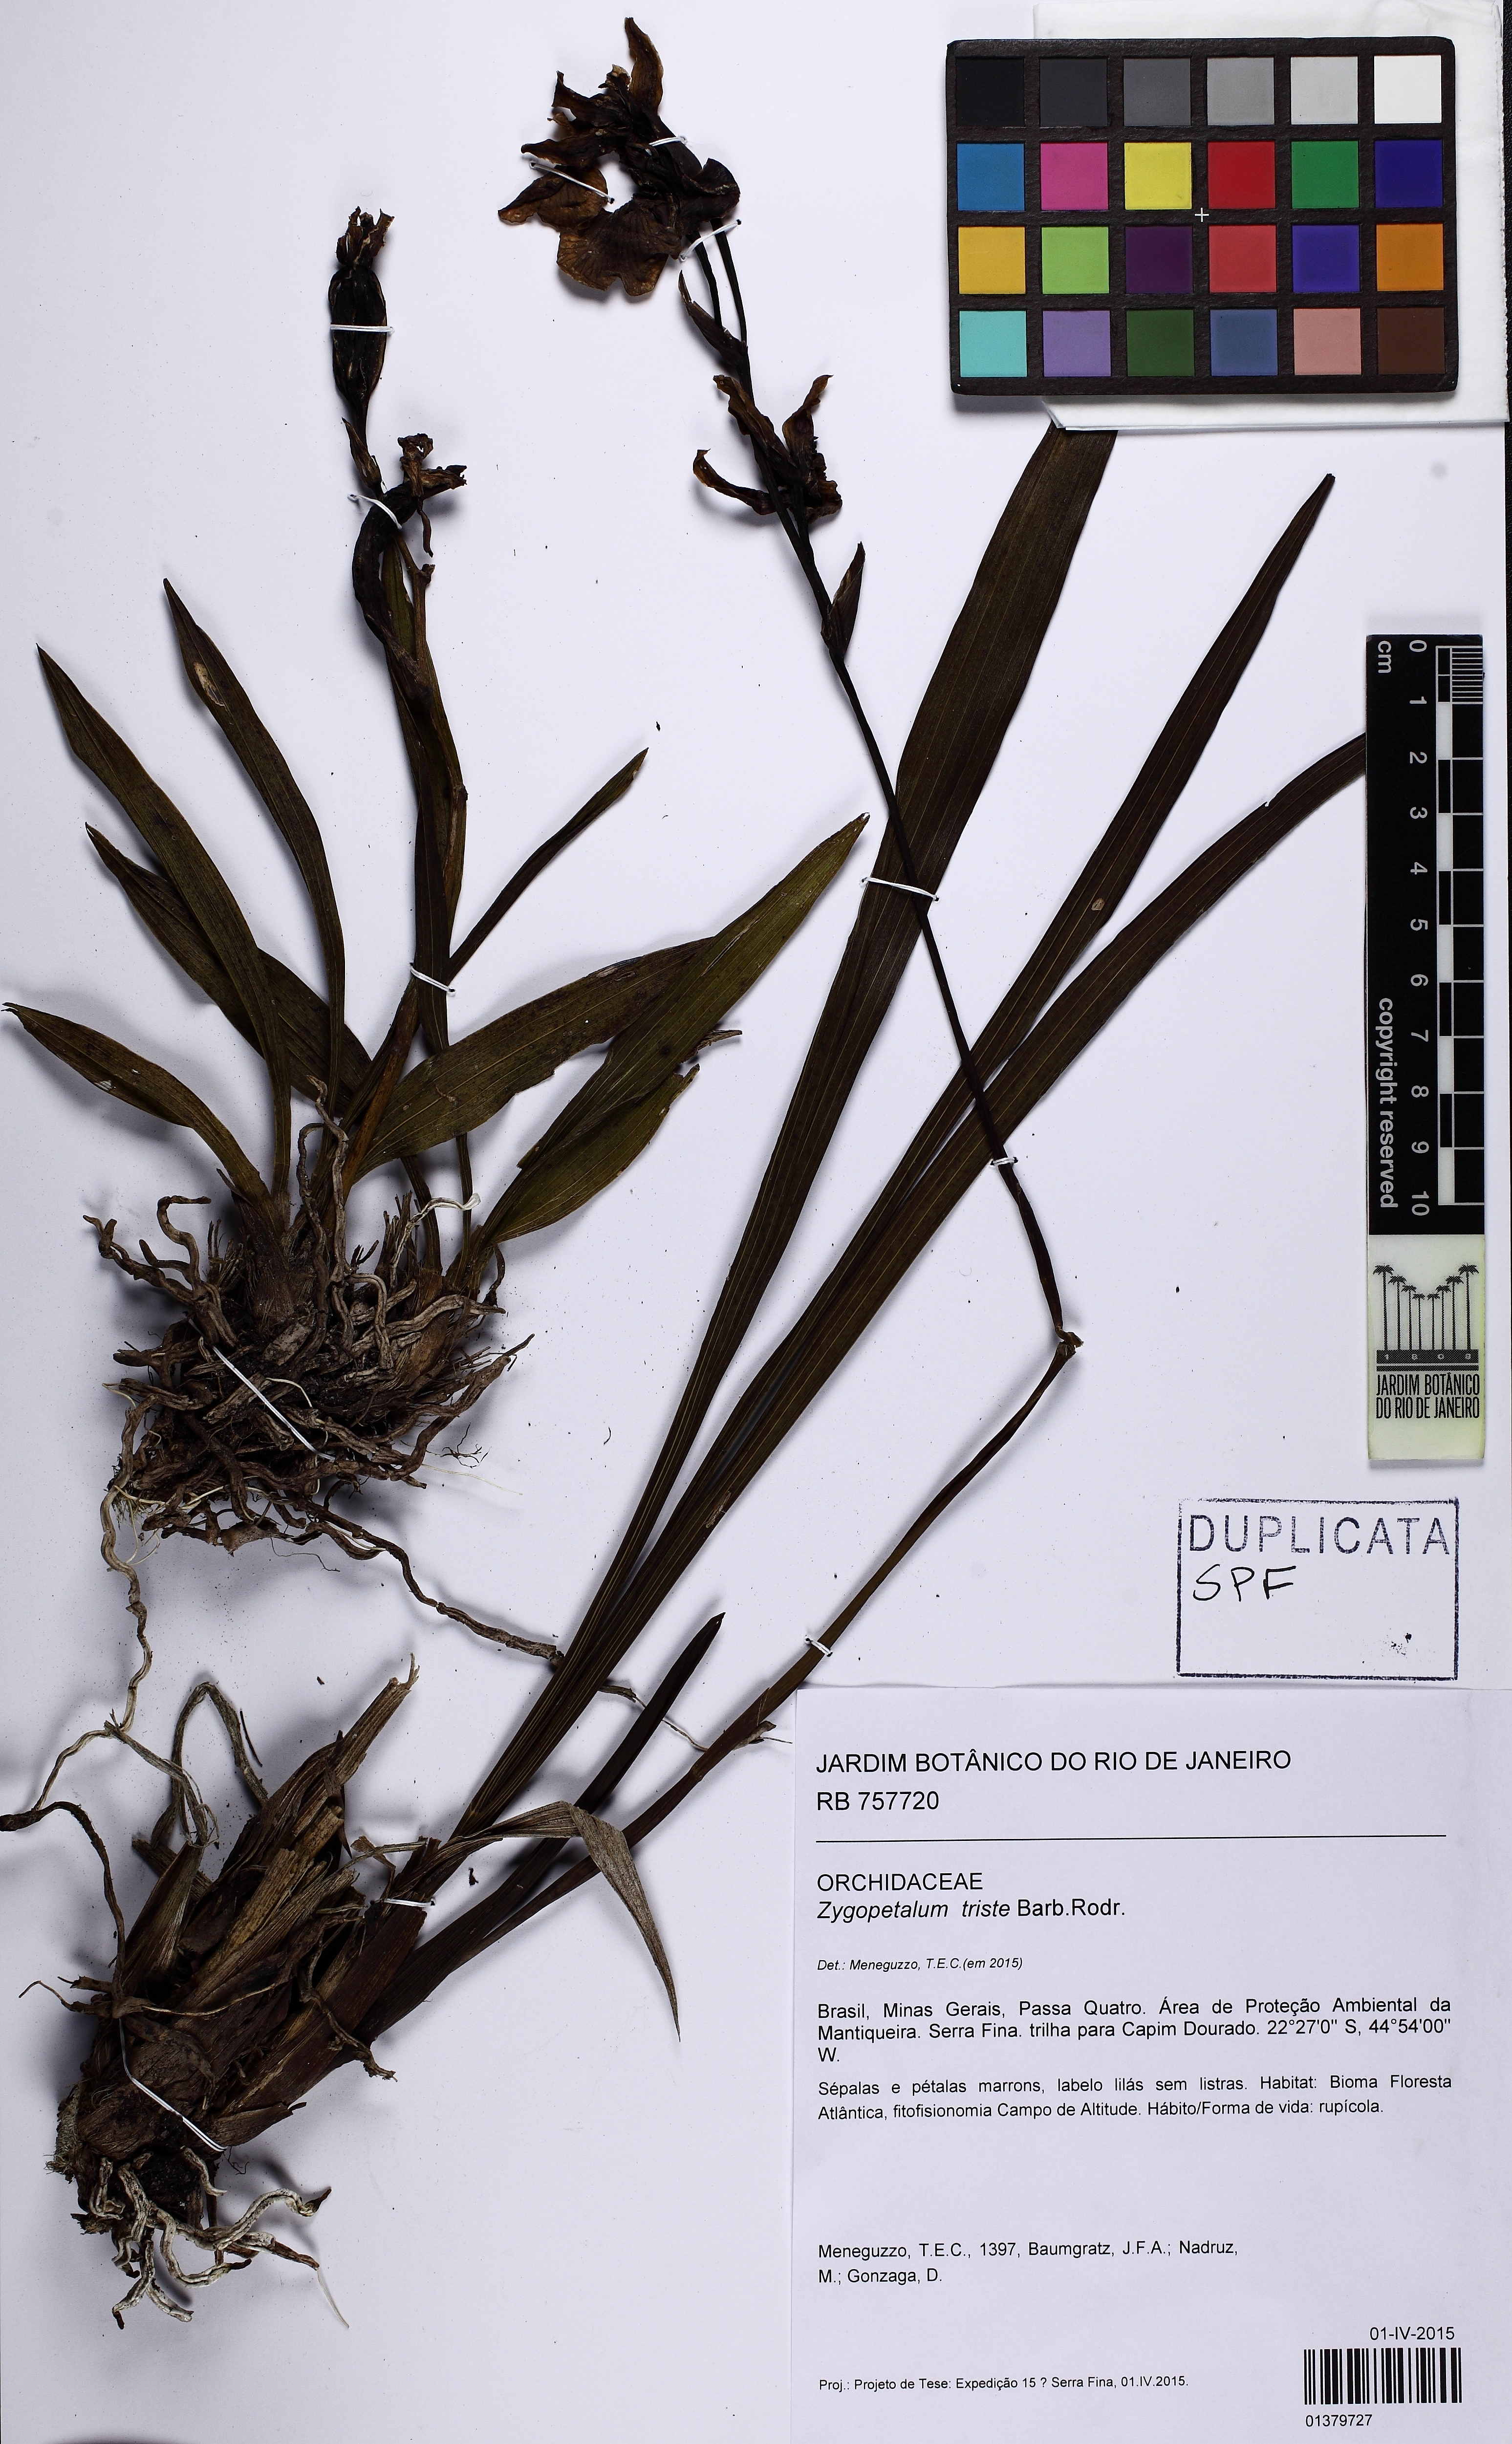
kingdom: Plantae
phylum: Tracheophyta
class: Liliopsida
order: Asparagales
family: Orchidaceae
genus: Zygopetalum
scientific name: Zygopetalum triste
